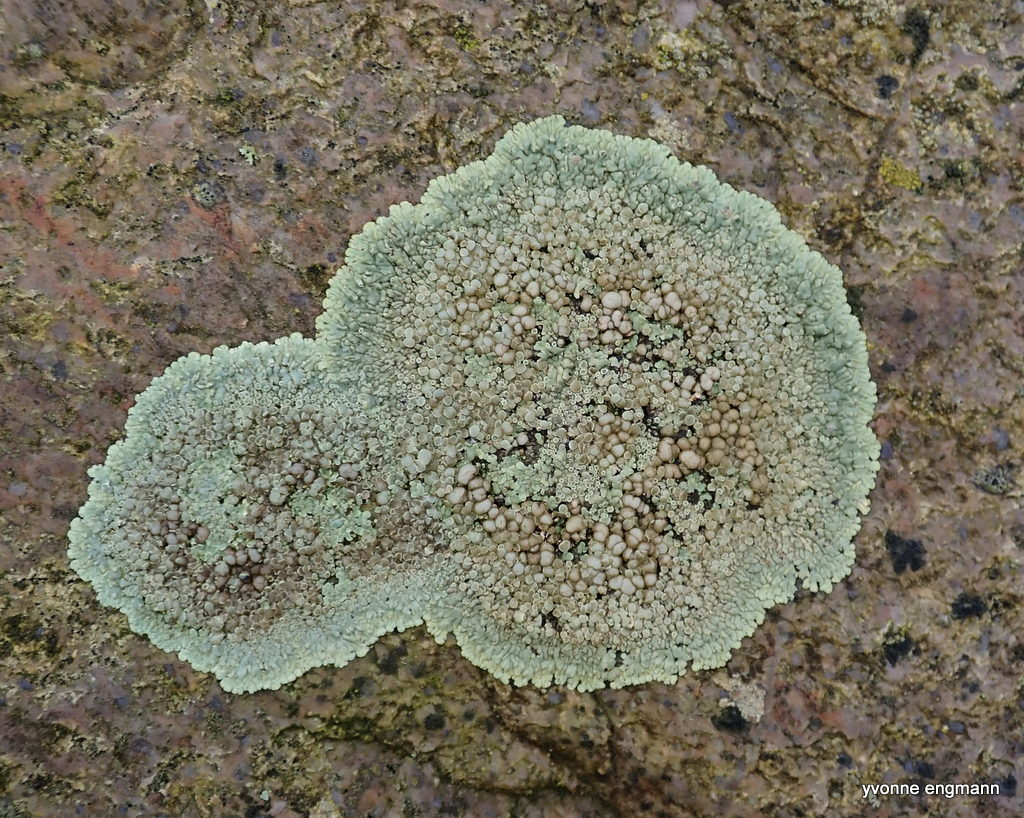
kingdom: Fungi
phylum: Ascomycota
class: Lecanoromycetes
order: Lecanorales
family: Lecanoraceae
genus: Protoparmeliopsis
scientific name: Protoparmeliopsis muralis
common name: randfliget kantskivelav
